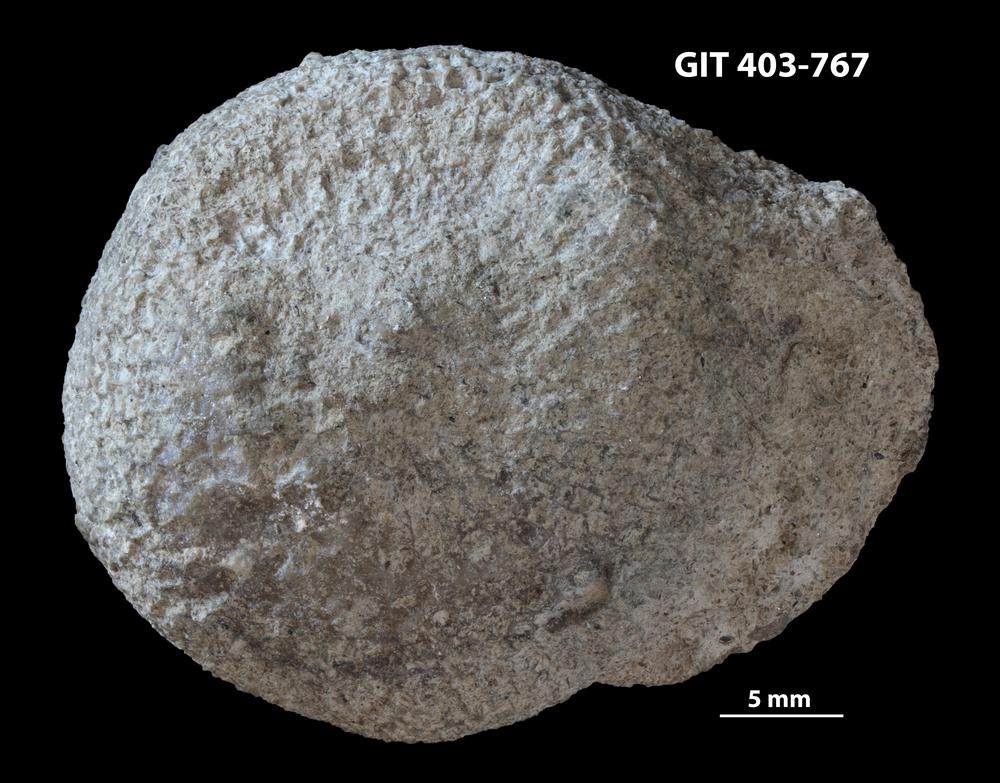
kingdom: Animalia
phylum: Cnidaria
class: Anthozoa
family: Favositidae
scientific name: Favositidae
